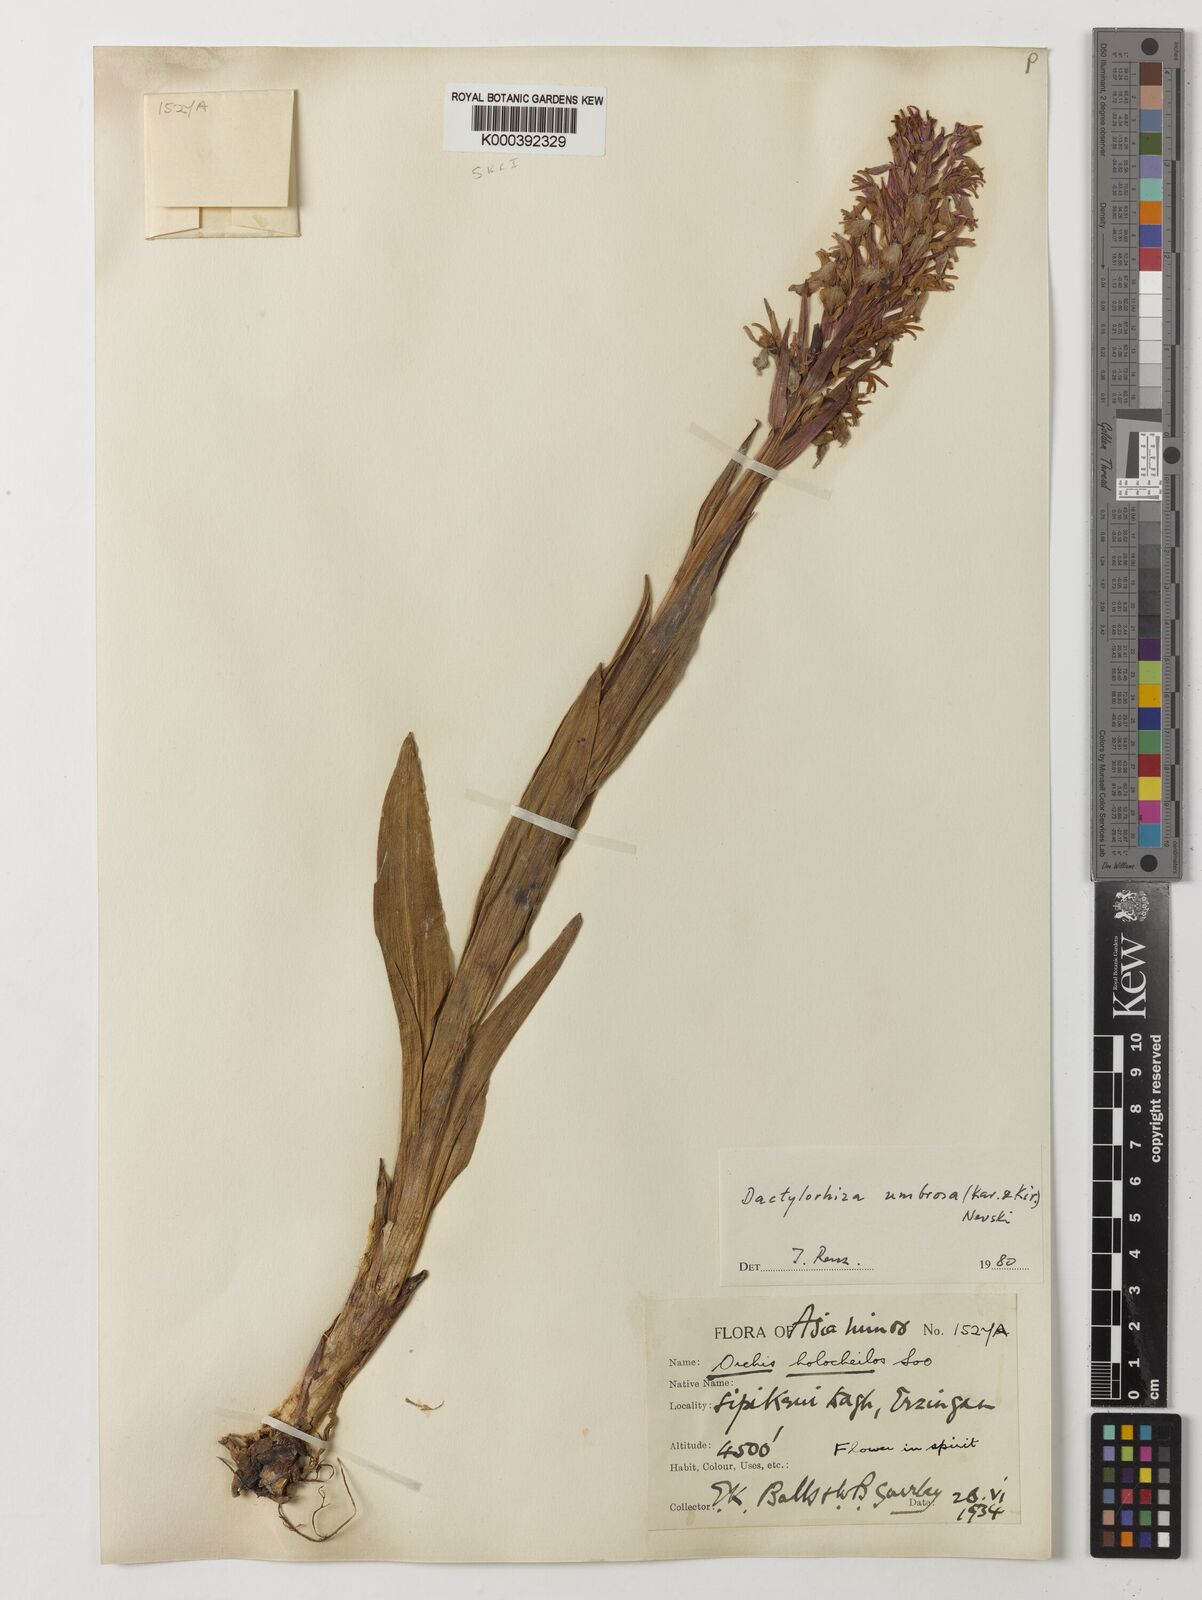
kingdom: Plantae
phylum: Tracheophyta
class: Liliopsida
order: Asparagales
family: Orchidaceae
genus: Dactylorhiza
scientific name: Dactylorhiza
